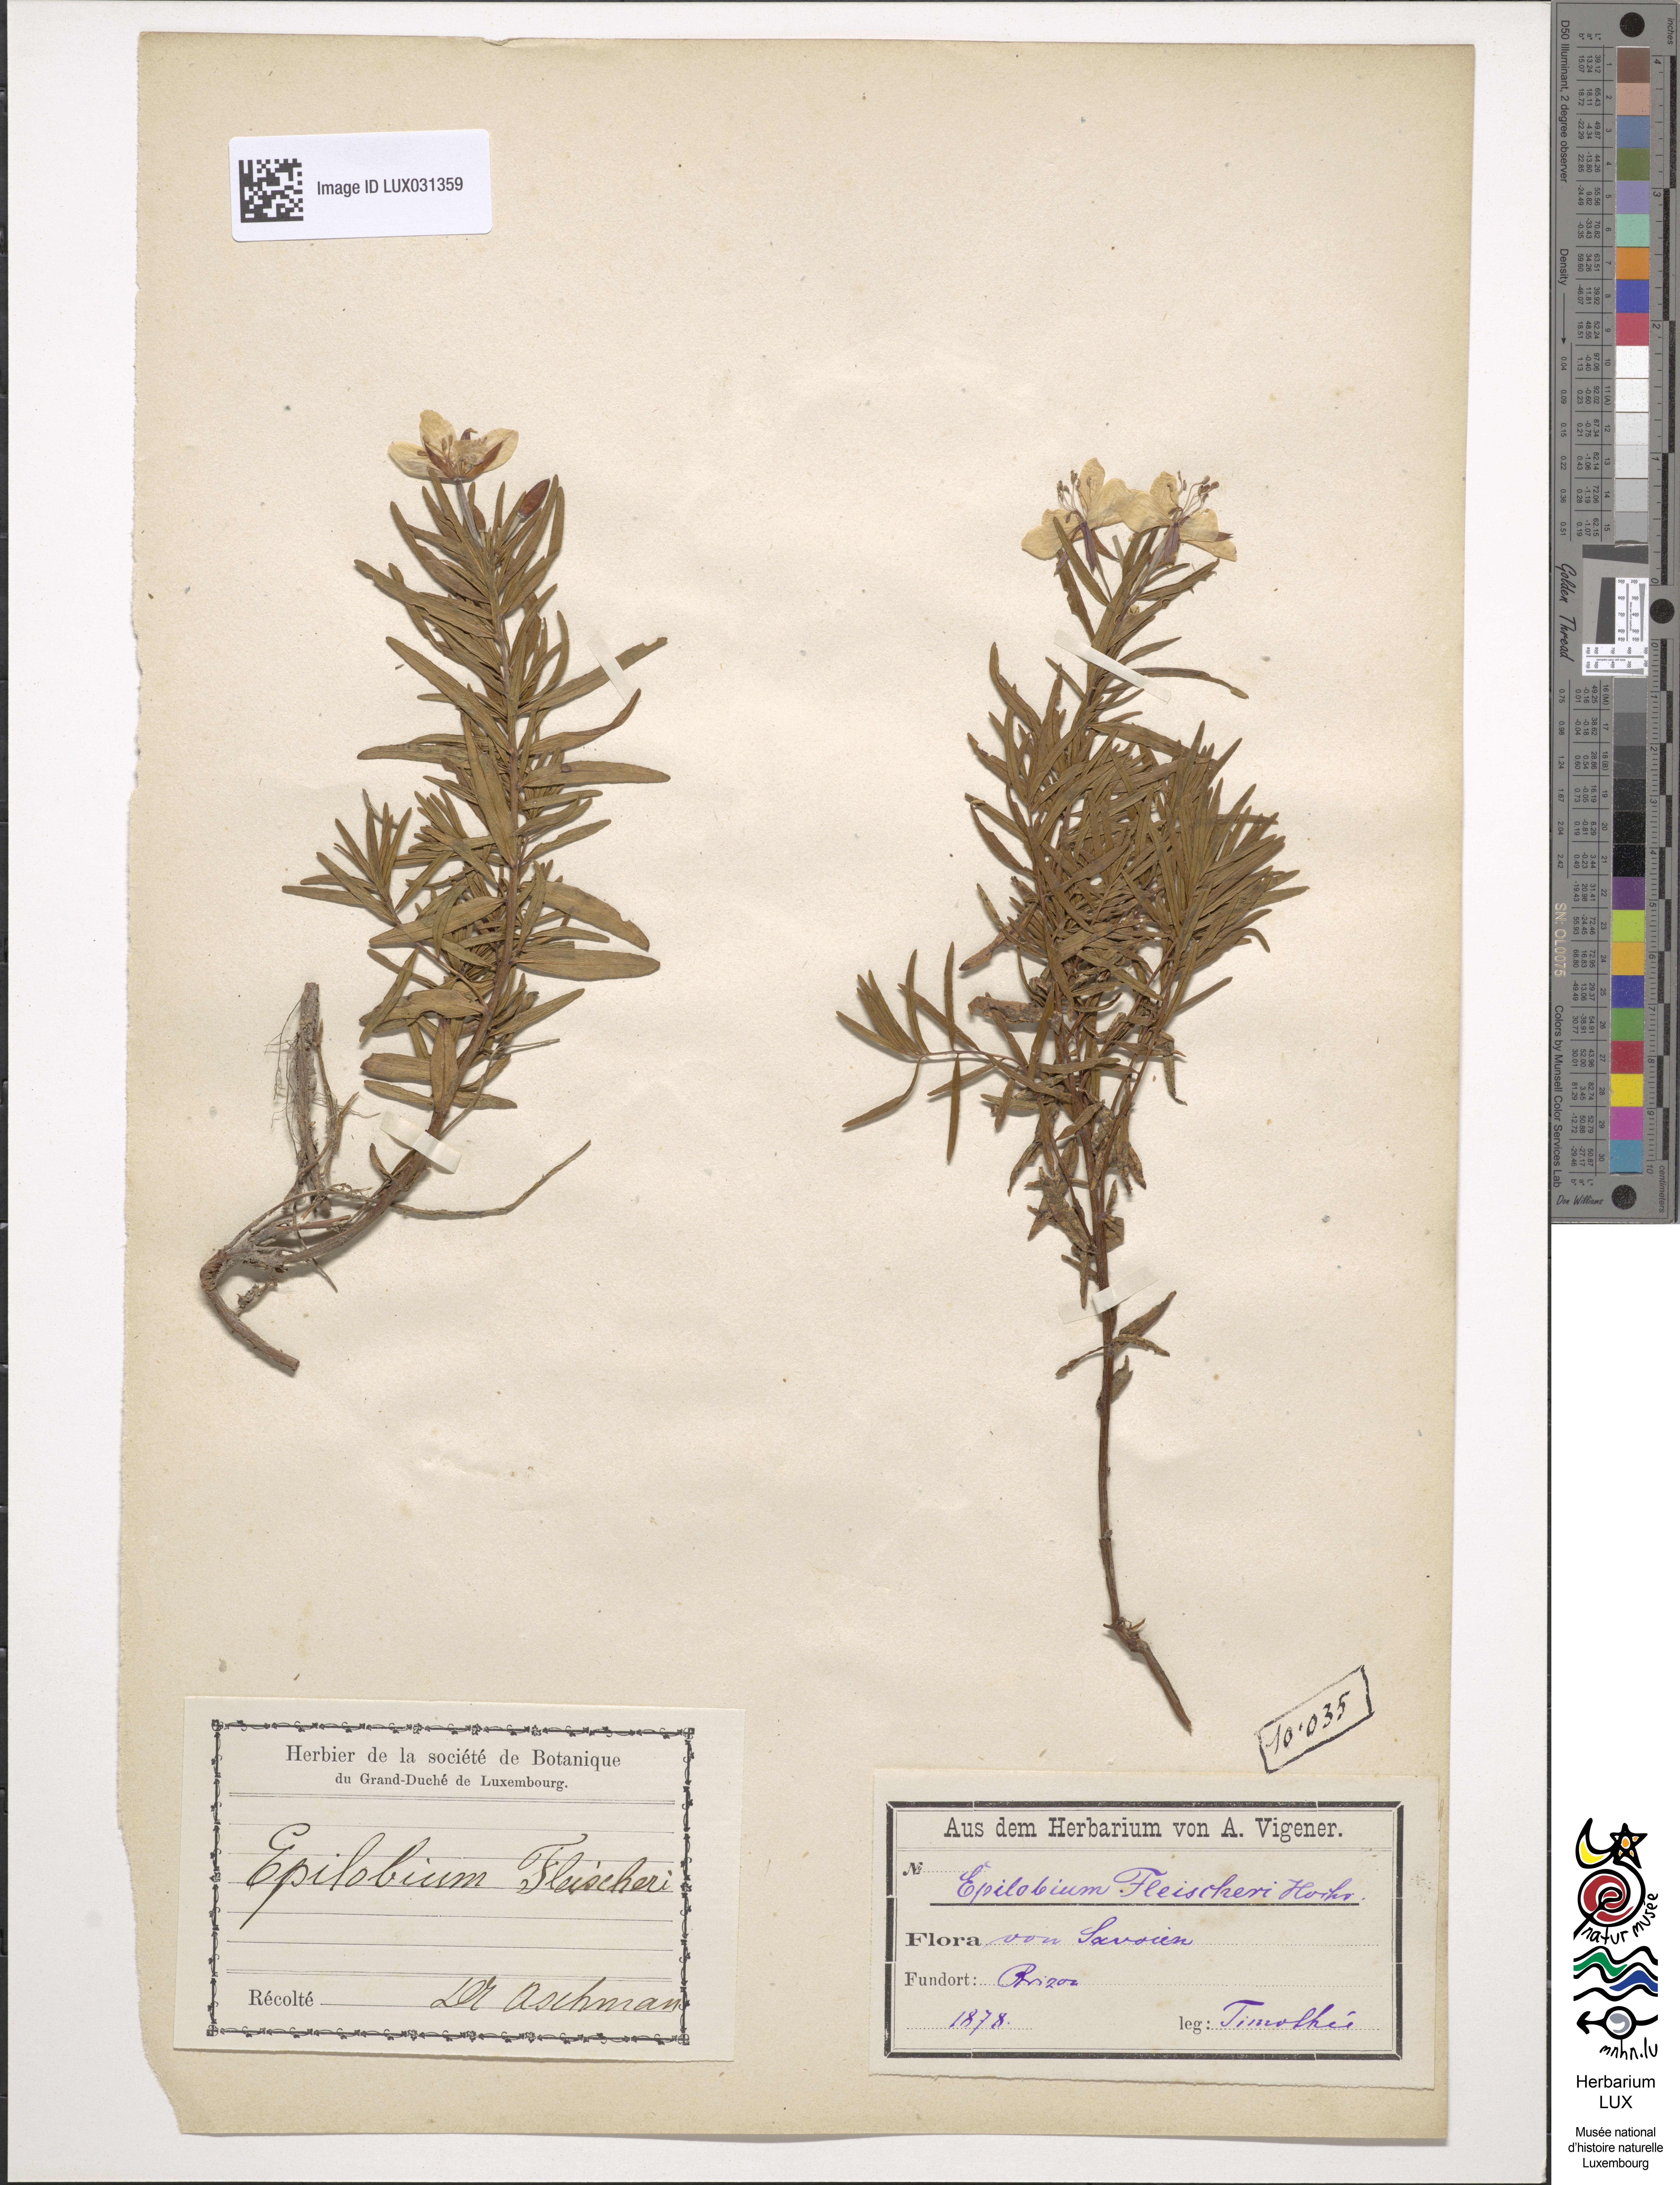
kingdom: Plantae
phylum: Tracheophyta
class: Magnoliopsida
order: Myrtales
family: Onagraceae
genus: Chamaenerion
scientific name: Chamaenerion fleischeri
